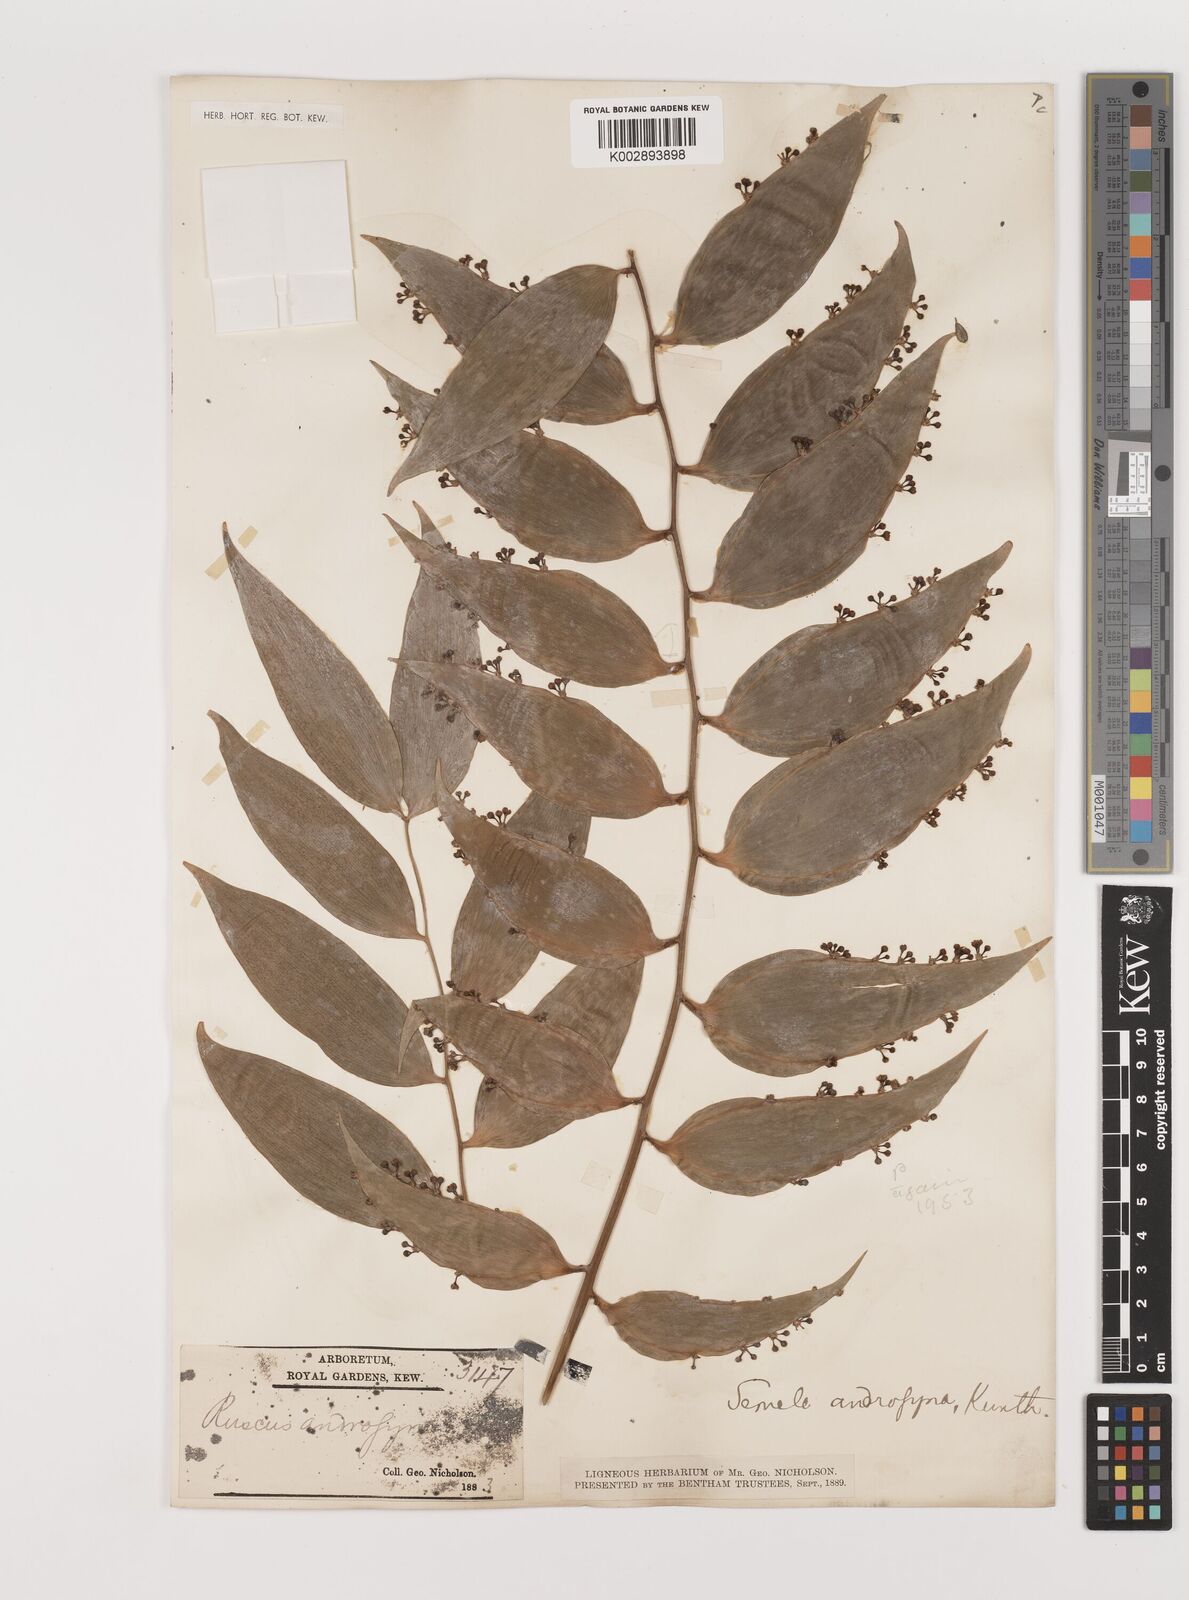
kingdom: Plantae
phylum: Tracheophyta
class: Liliopsida
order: Asparagales
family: Asparagaceae
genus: Semele
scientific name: Semele androgyna
